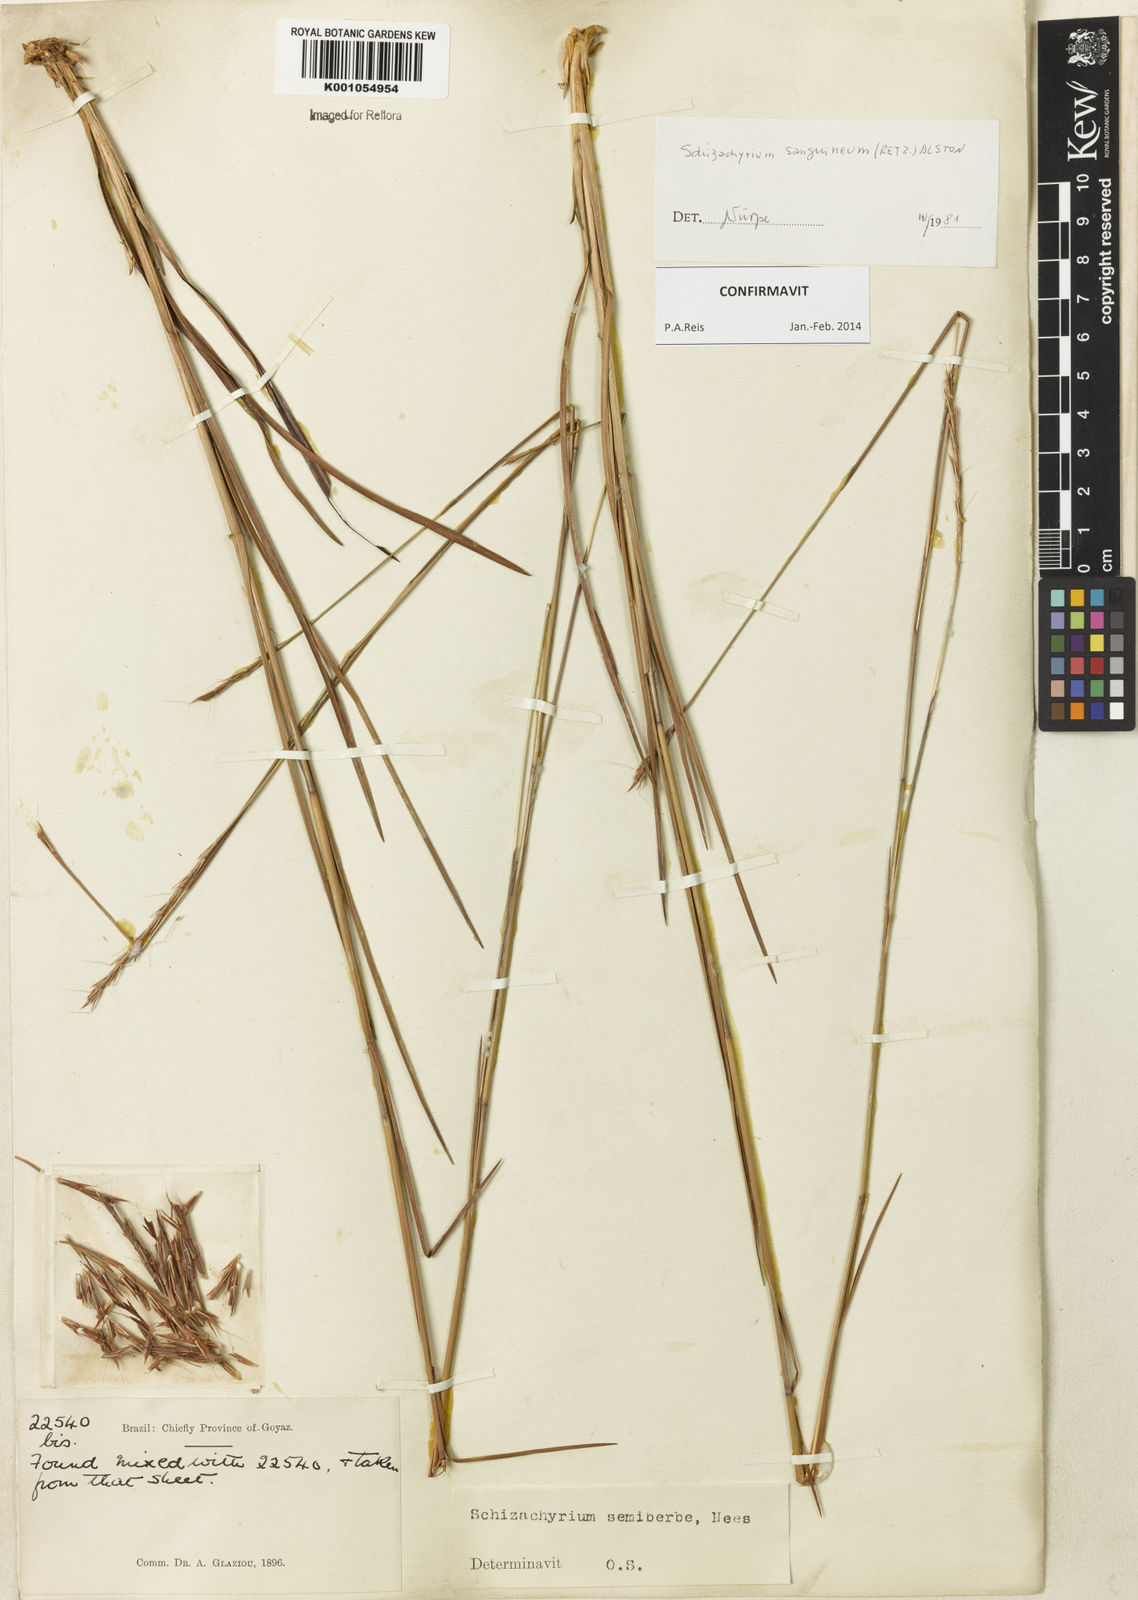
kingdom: Plantae
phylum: Tracheophyta
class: Liliopsida
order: Poales
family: Poaceae
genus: Schizachyrium
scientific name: Schizachyrium sanguineum
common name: Crimson bluestem
